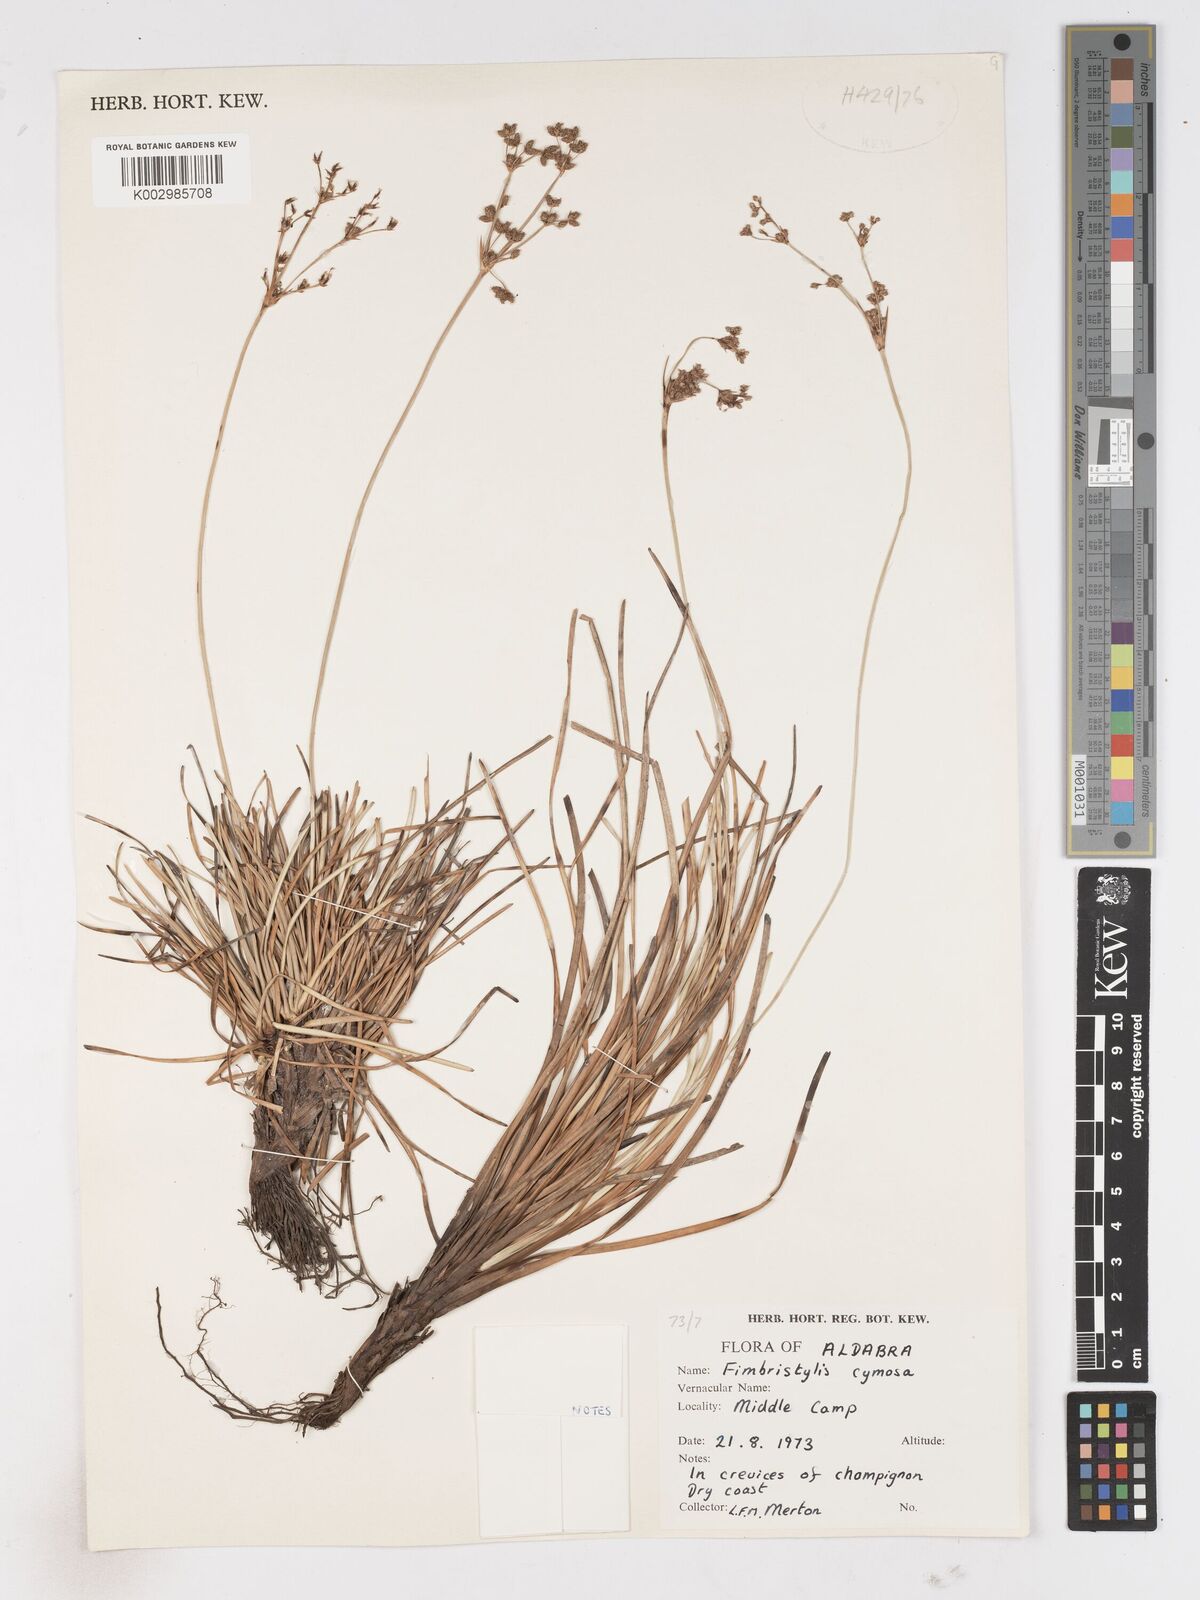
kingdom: Plantae
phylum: Tracheophyta
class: Liliopsida
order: Poales
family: Cyperaceae
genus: Fimbristylis
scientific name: Fimbristylis cymosa
